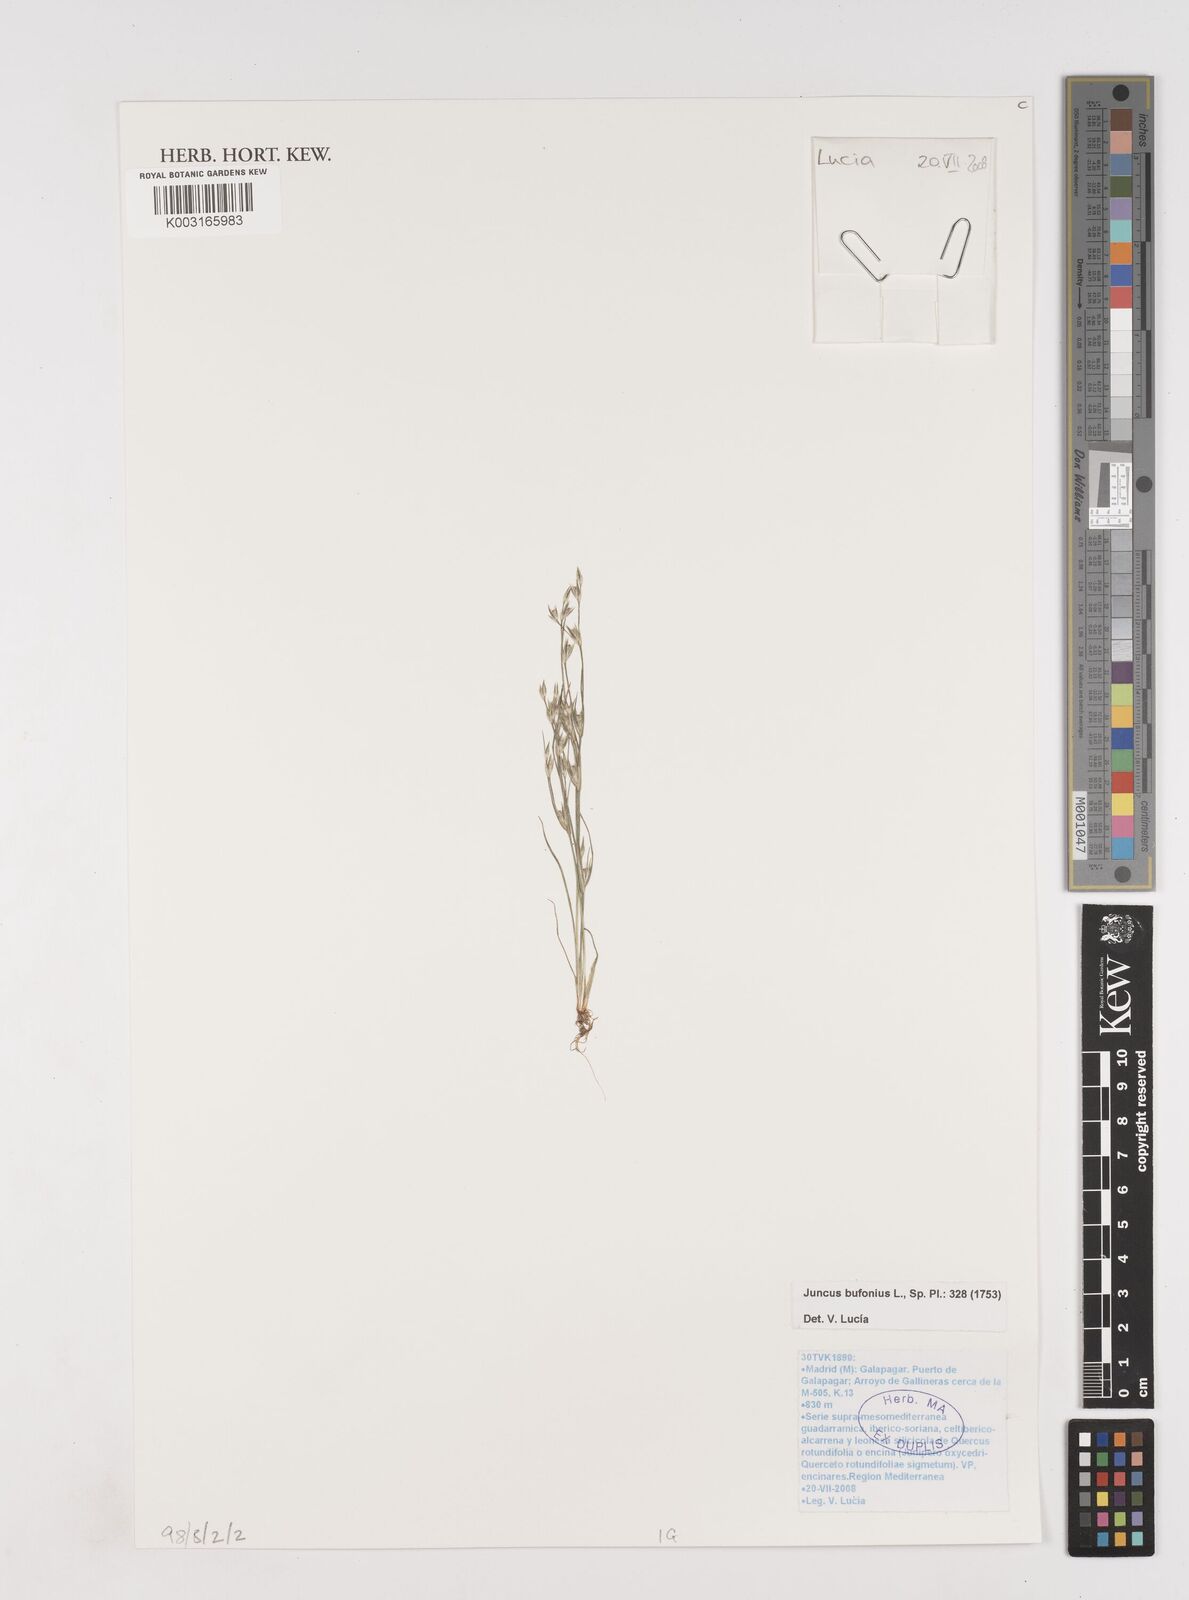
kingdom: Plantae
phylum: Tracheophyta
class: Liliopsida
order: Poales
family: Juncaceae
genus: Juncus
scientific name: Juncus bufonius
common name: Toad rush
